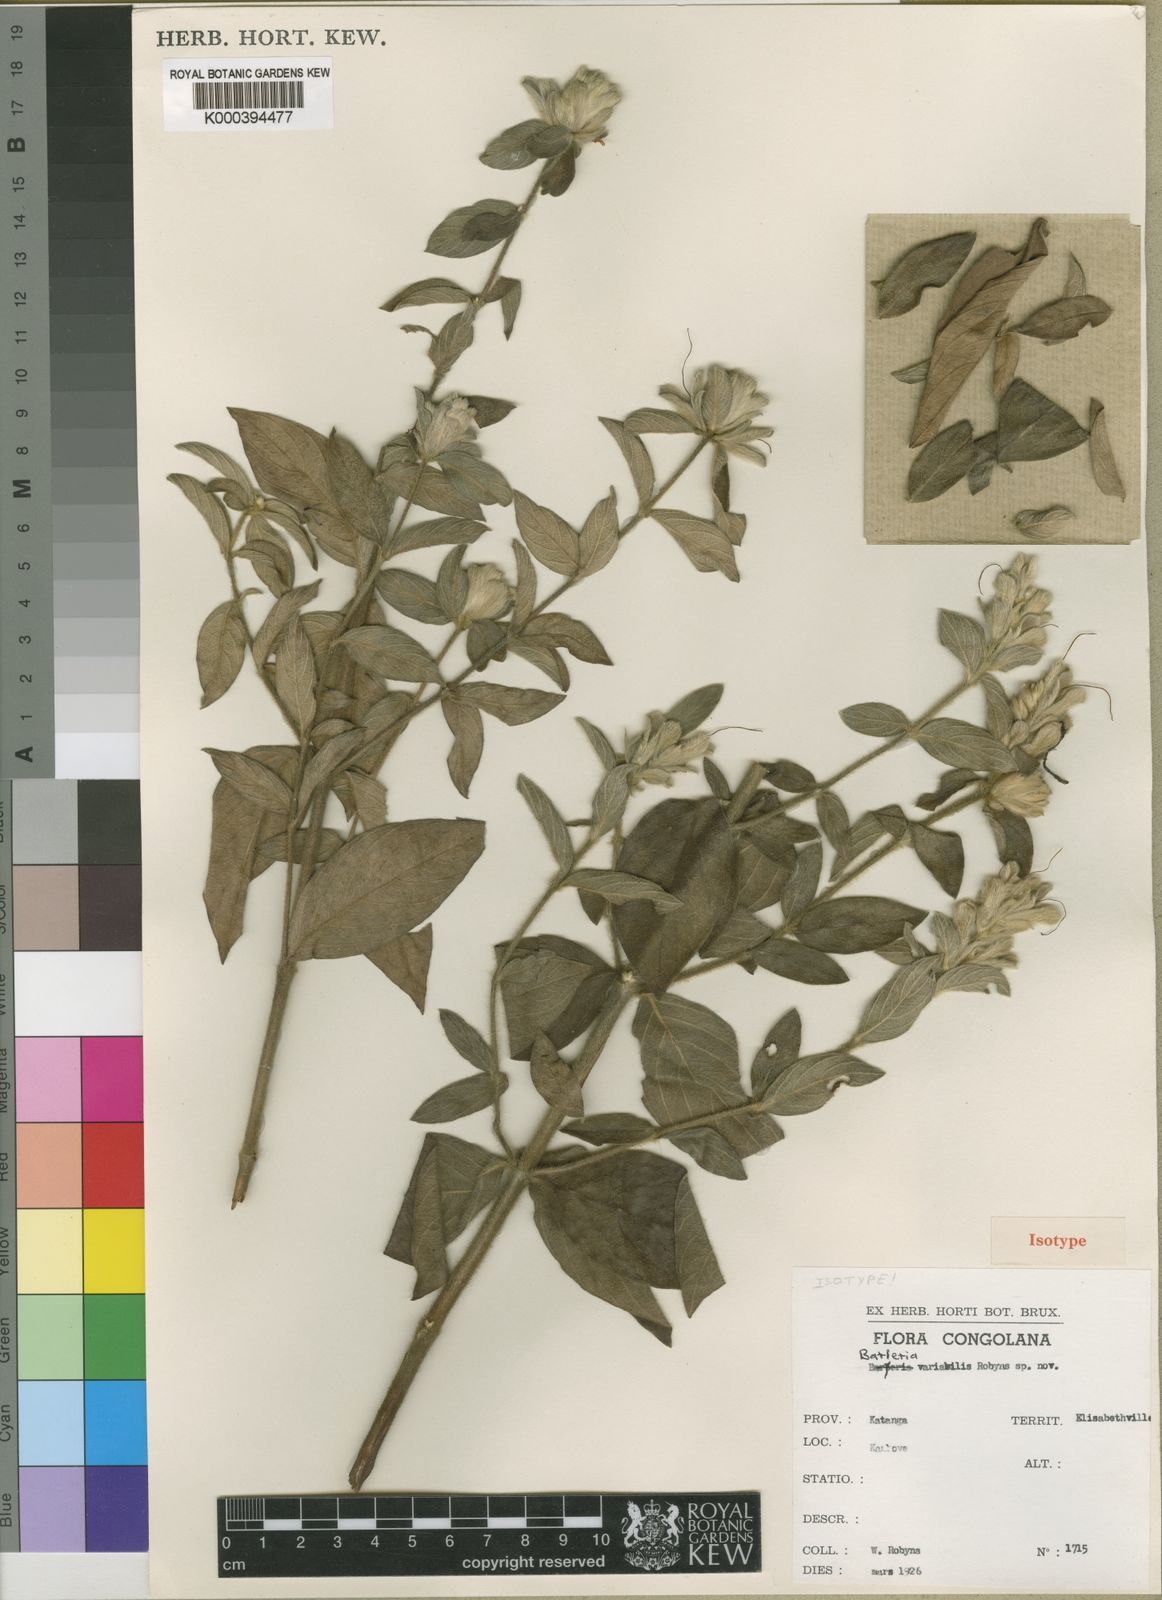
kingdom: Plantae
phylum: Tracheophyta
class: Magnoliopsida
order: Lamiales
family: Acanthaceae
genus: Barleria
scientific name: Barleria spinulosa
